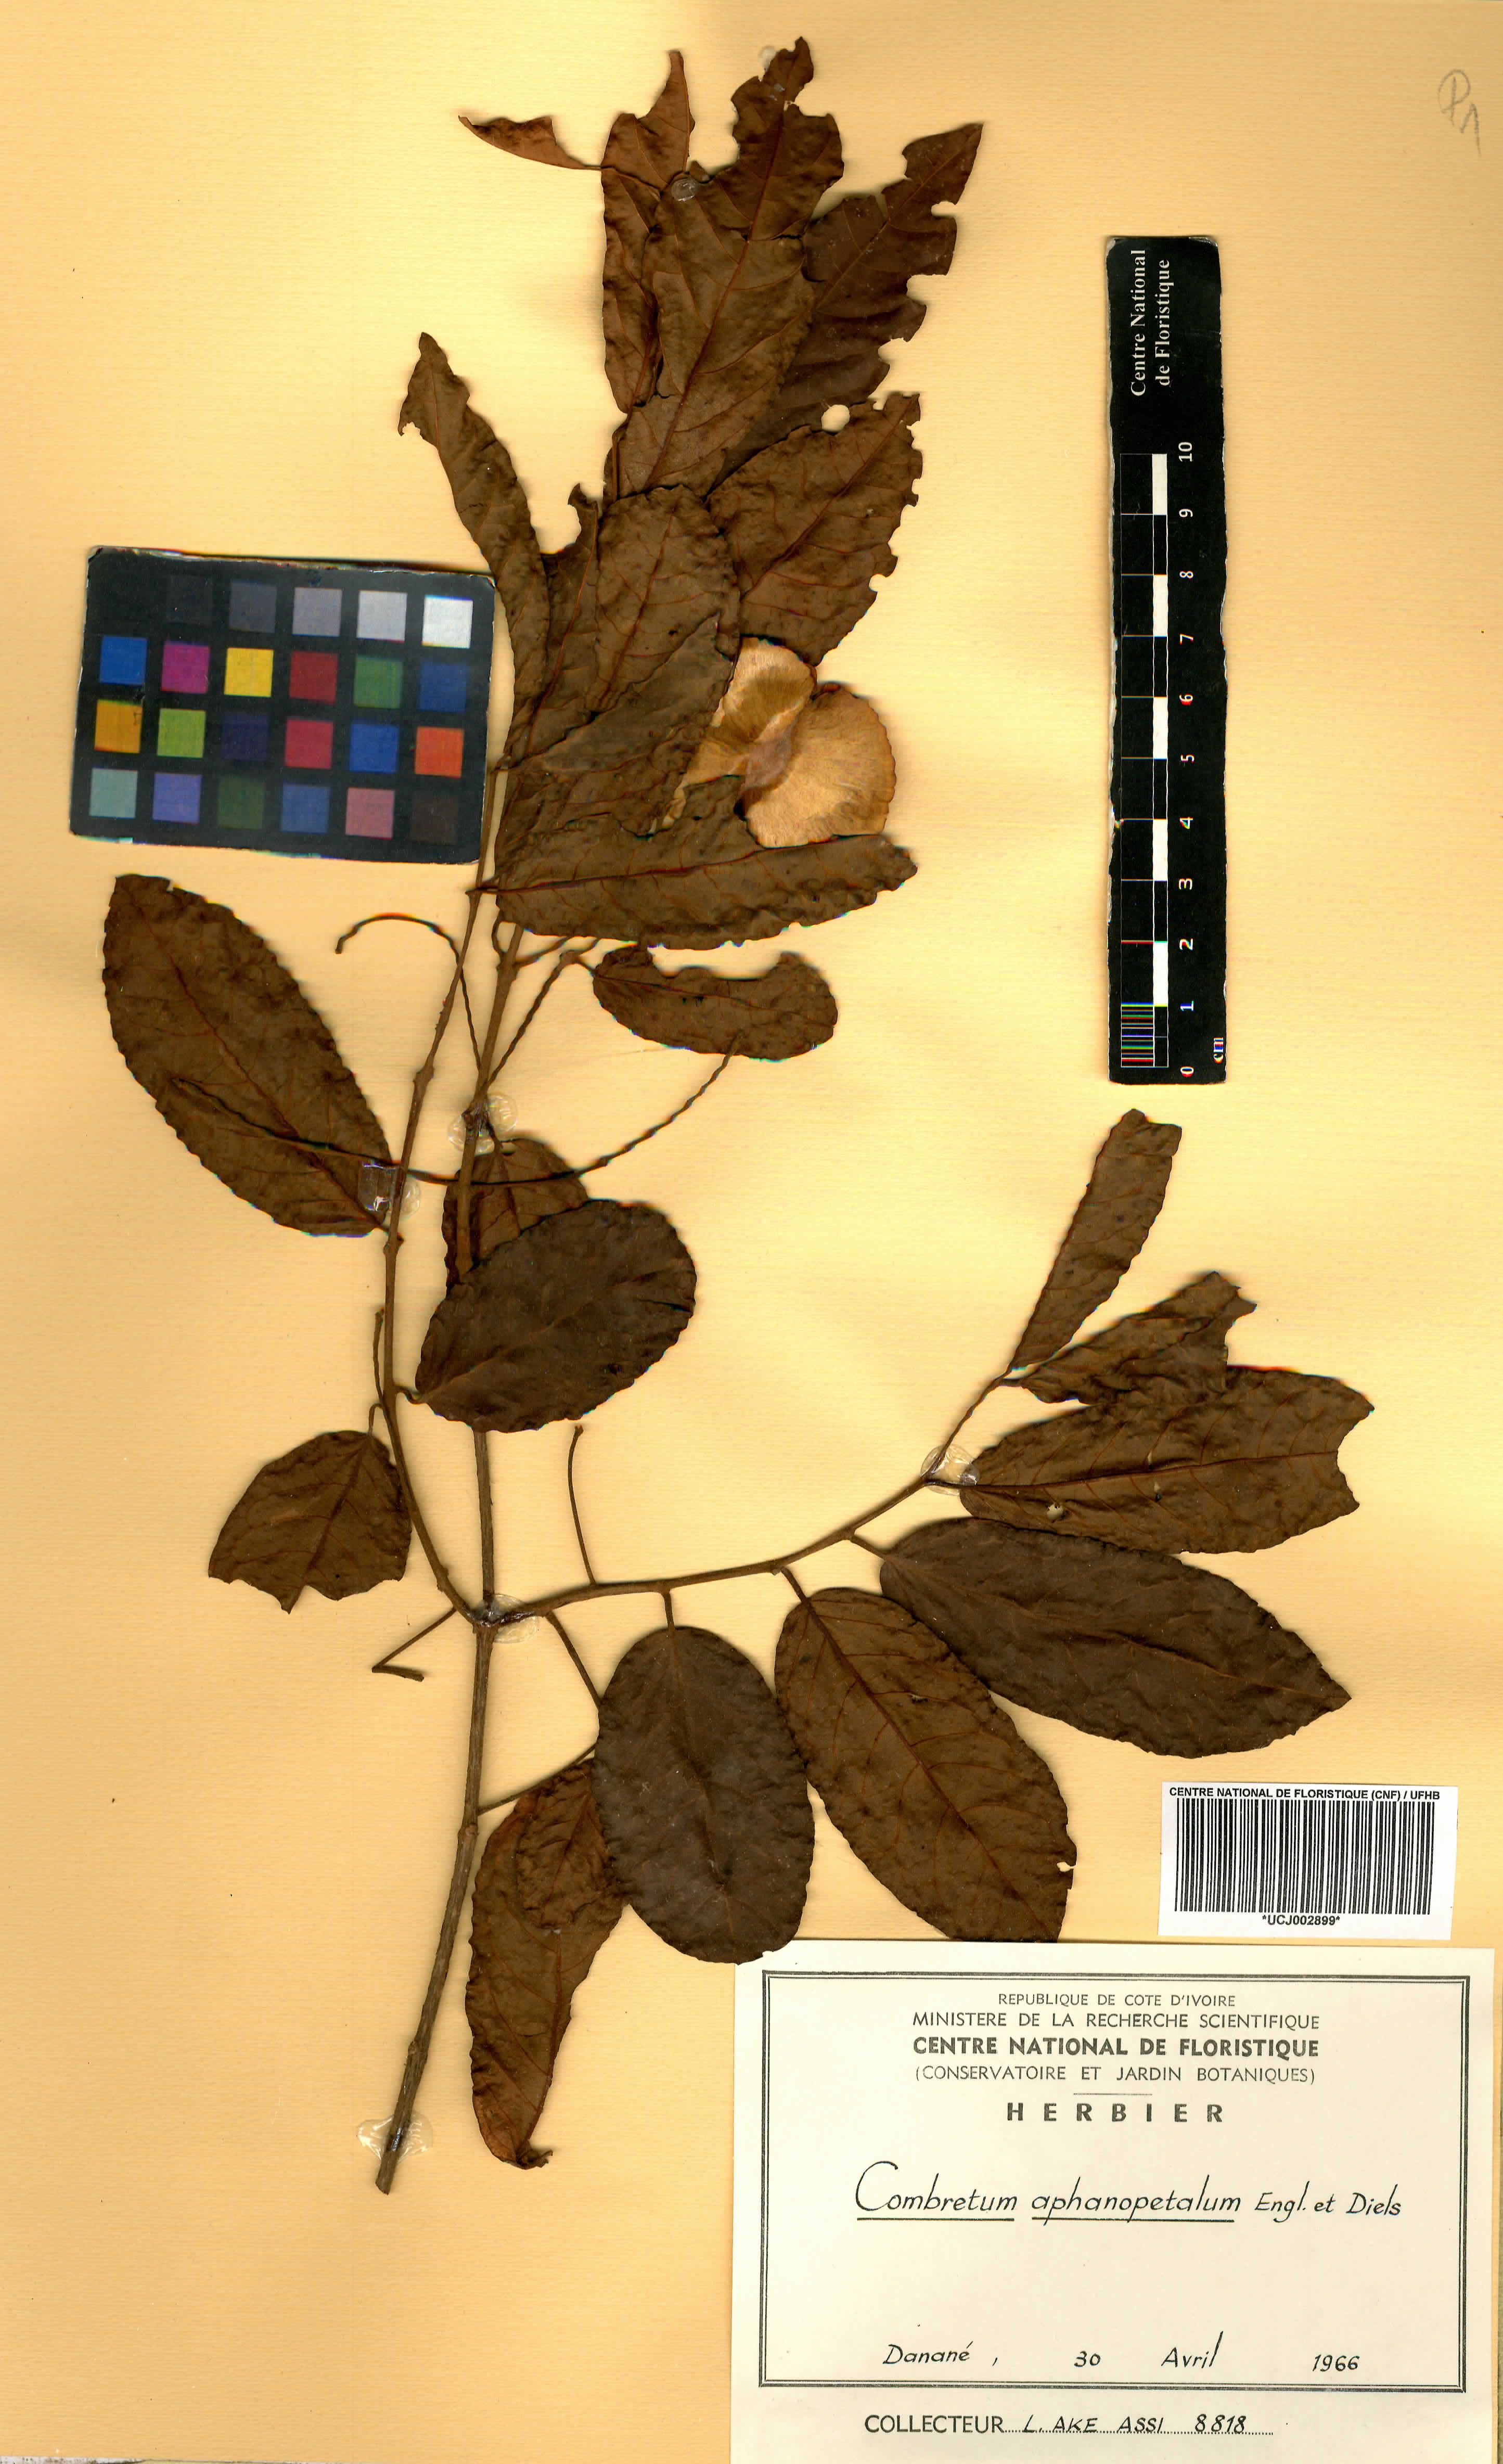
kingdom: Plantae
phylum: Tracheophyta
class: Magnoliopsida
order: Myrtales
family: Combretaceae
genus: Combretum
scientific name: Combretum adenogonium
